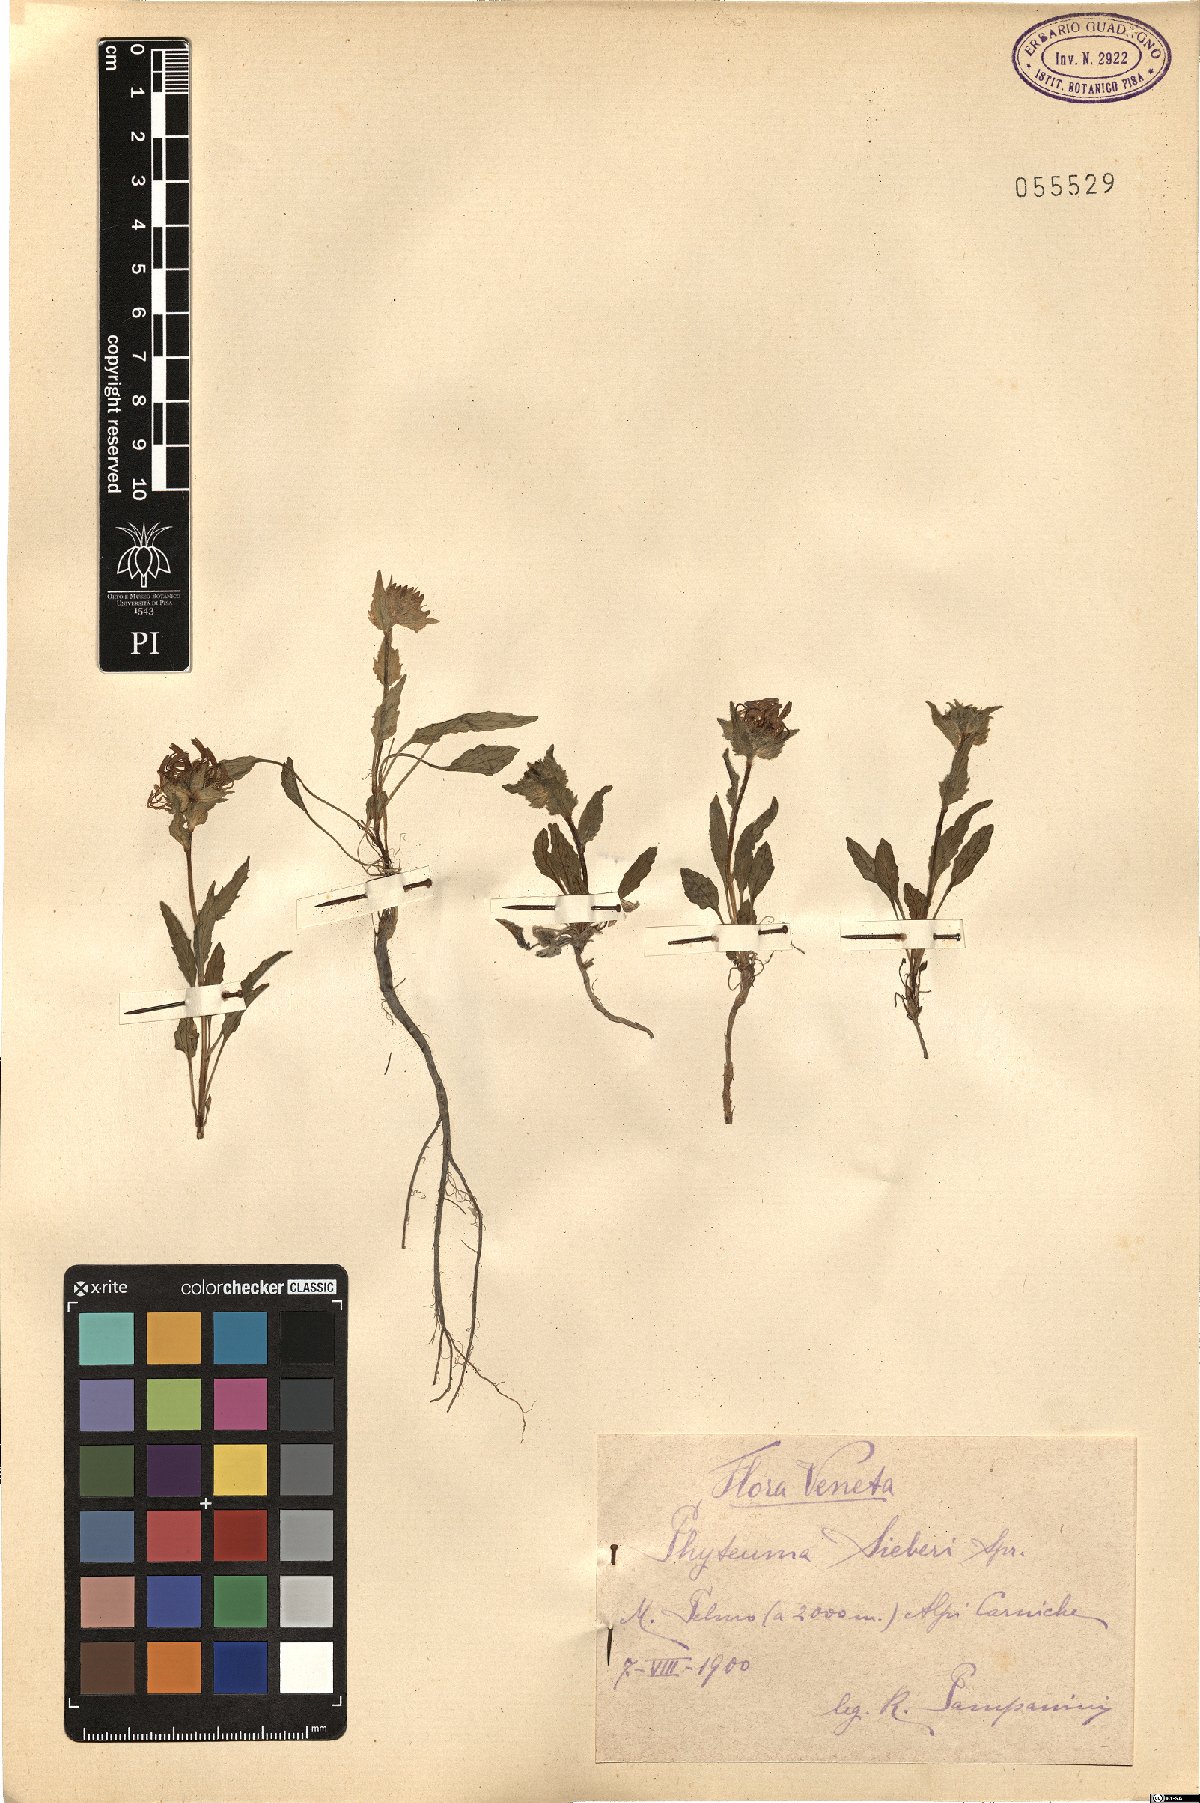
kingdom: Plantae
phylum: Tracheophyta
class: Magnoliopsida
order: Asterales
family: Campanulaceae
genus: Phyteuma
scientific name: Phyteuma sieberi
